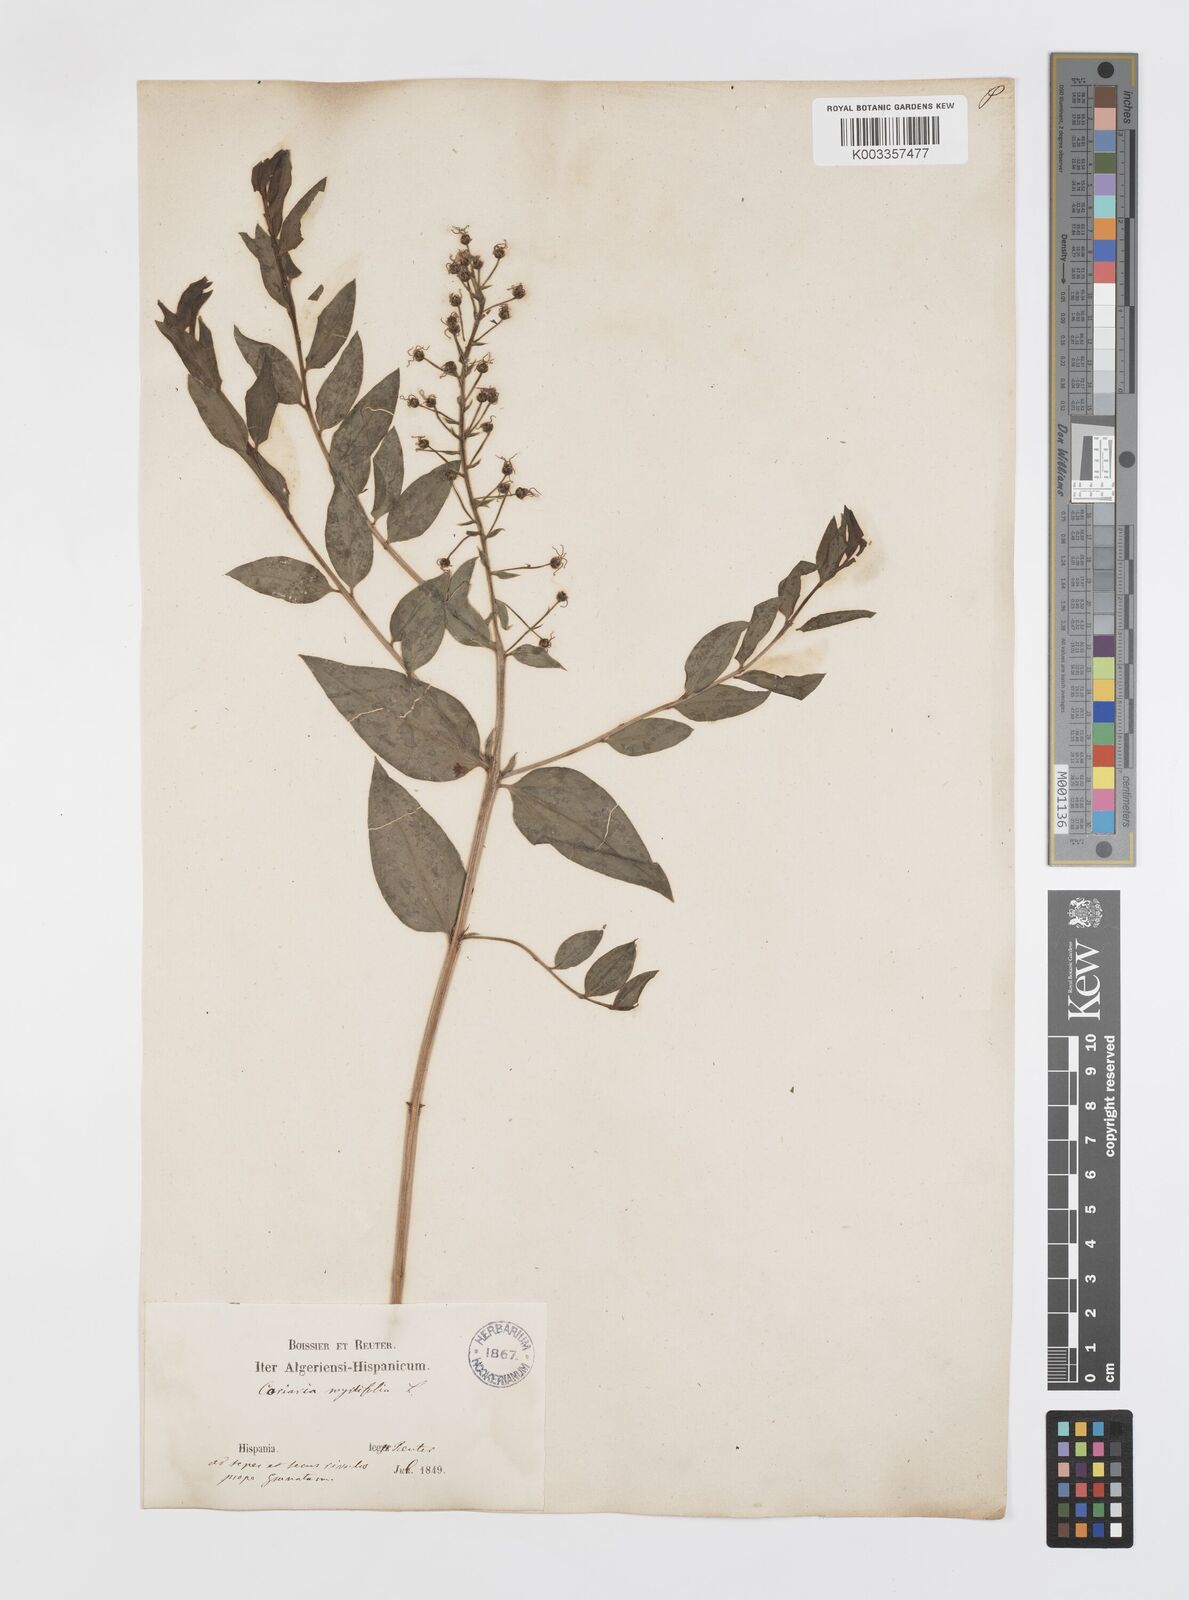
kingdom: Plantae
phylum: Tracheophyta
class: Magnoliopsida
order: Cucurbitales
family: Coriariaceae
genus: Coriaria
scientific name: Coriaria myrtifolia
